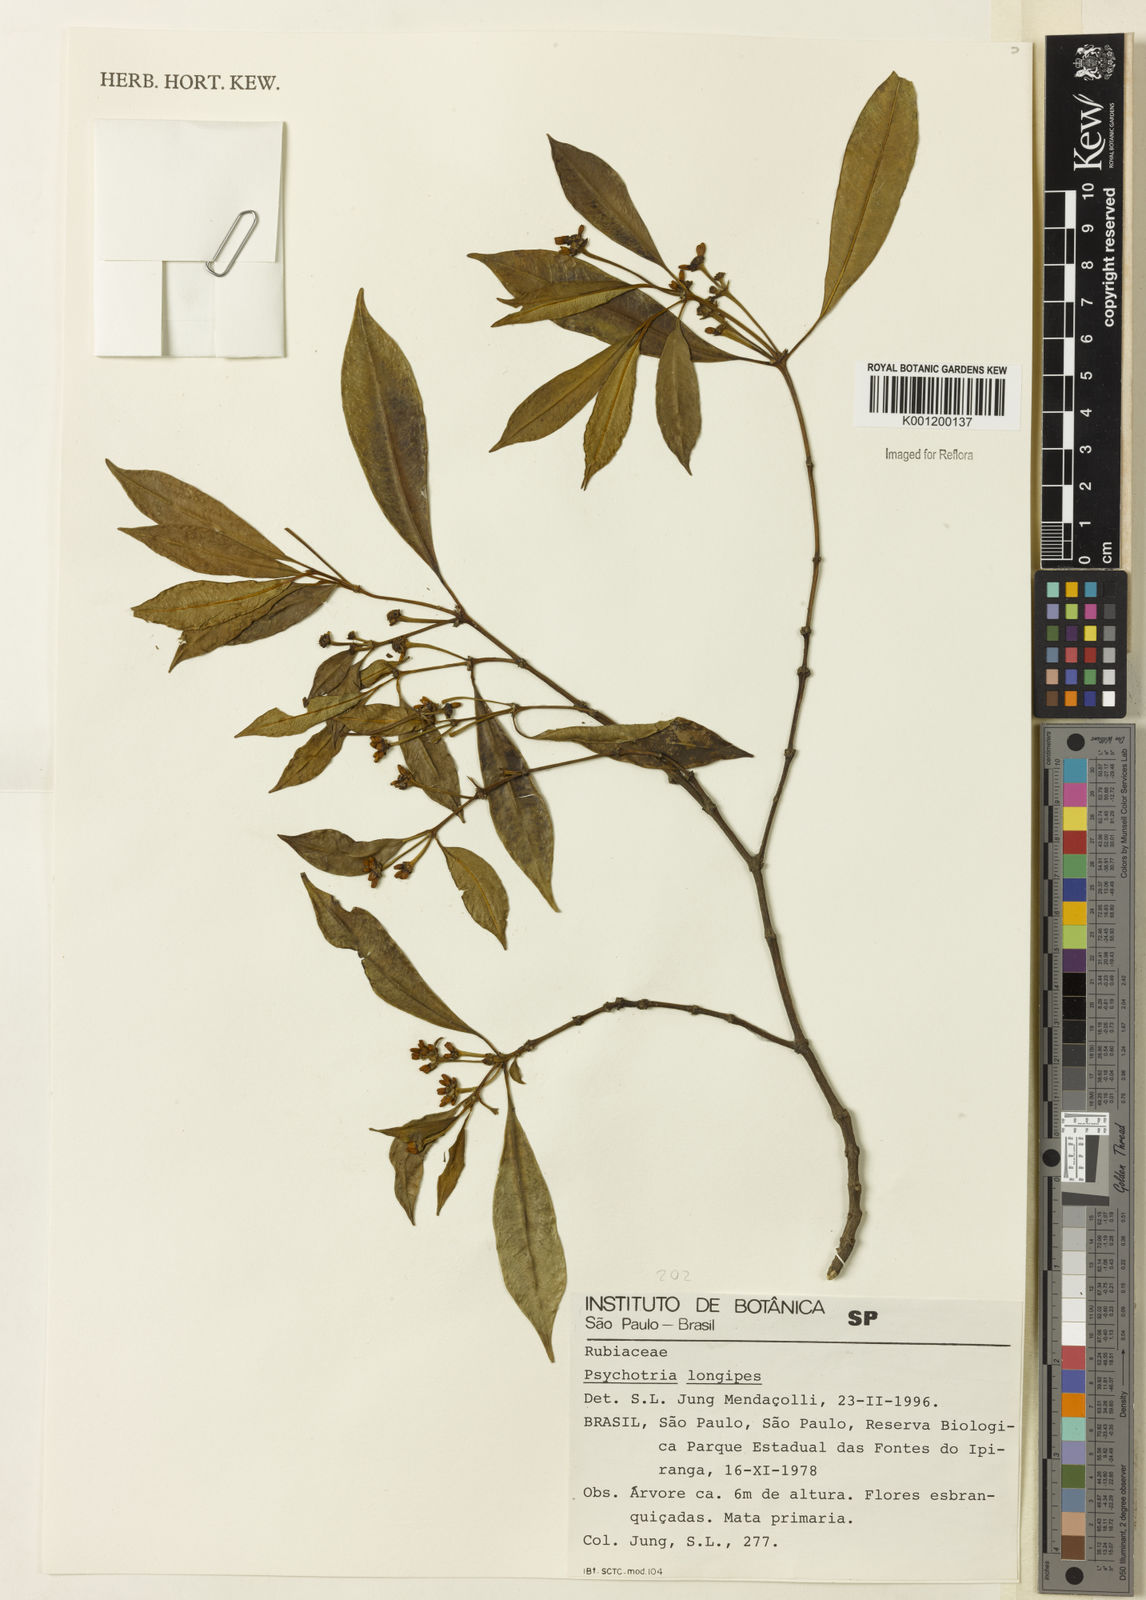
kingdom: Plantae
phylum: Tracheophyta
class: Magnoliopsida
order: Gentianales
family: Rubiaceae
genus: Rudgea
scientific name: Rudgea sessilis
